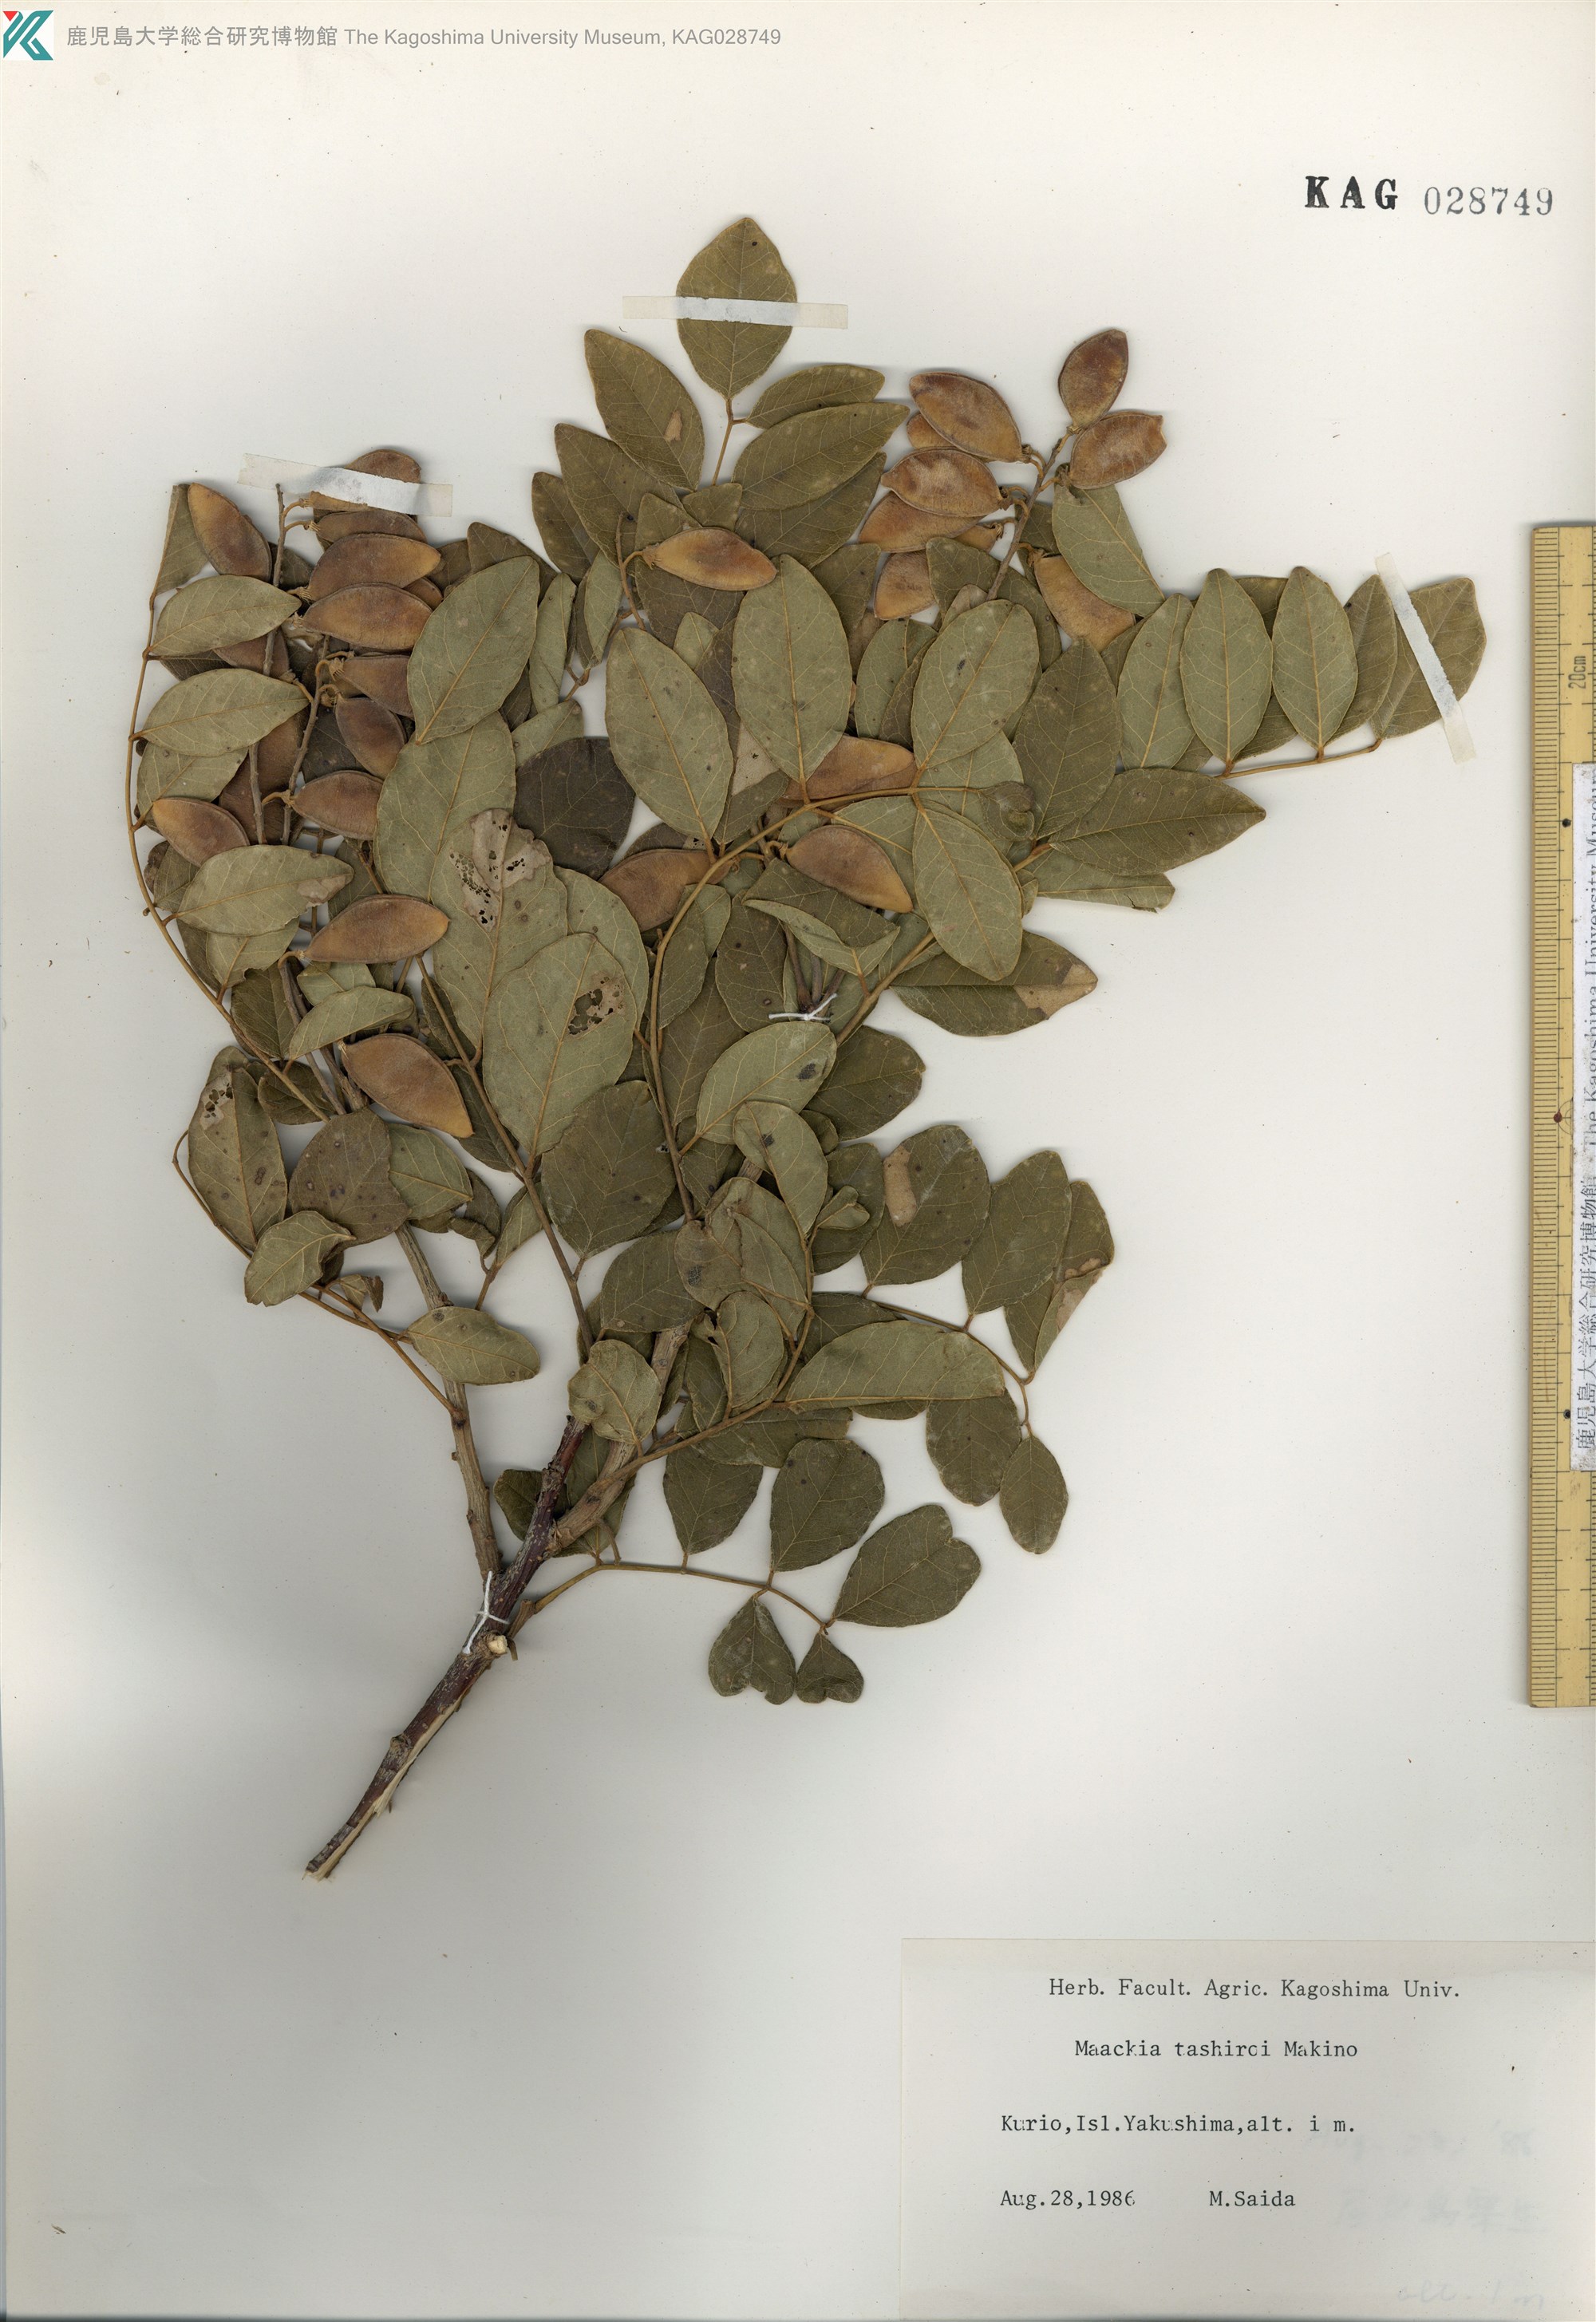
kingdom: Plantae
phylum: Tracheophyta
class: Magnoliopsida
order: Fabales
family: Fabaceae
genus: Maackia
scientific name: Maackia tashiroi
